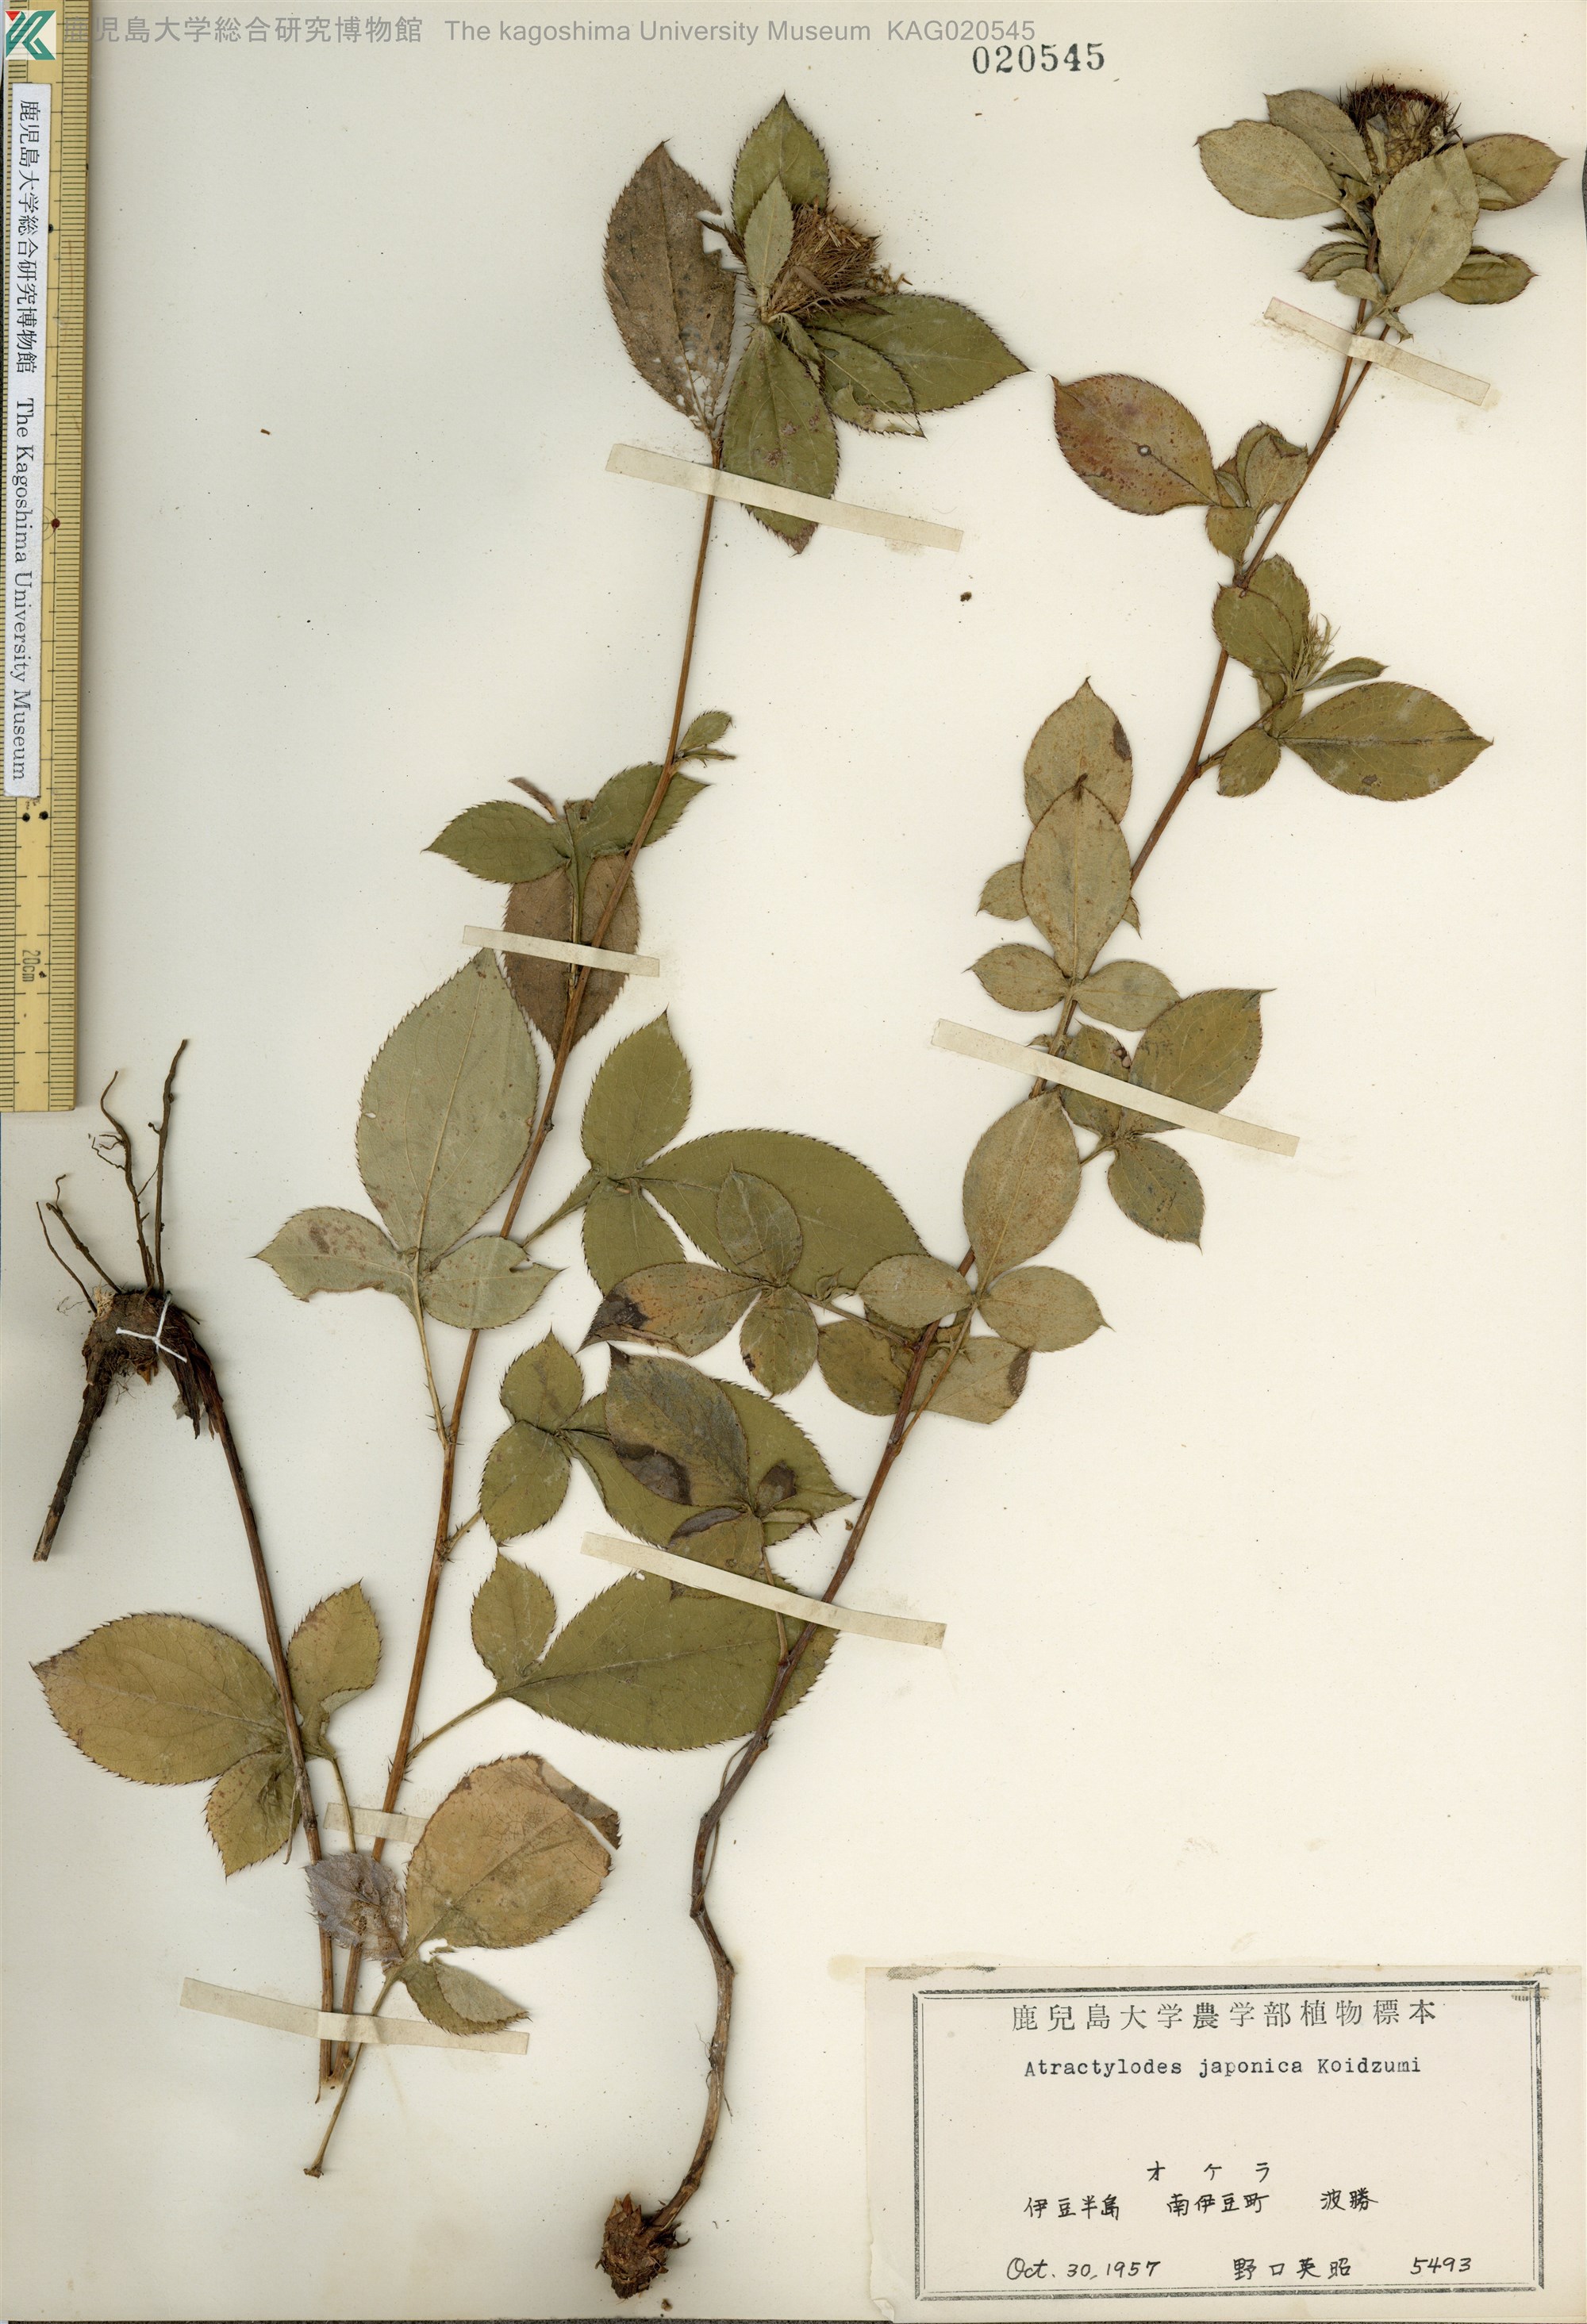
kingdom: Plantae
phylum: Tracheophyta
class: Magnoliopsida
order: Asterales
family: Asteraceae
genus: Atractylodes
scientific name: Atractylodes lancea
